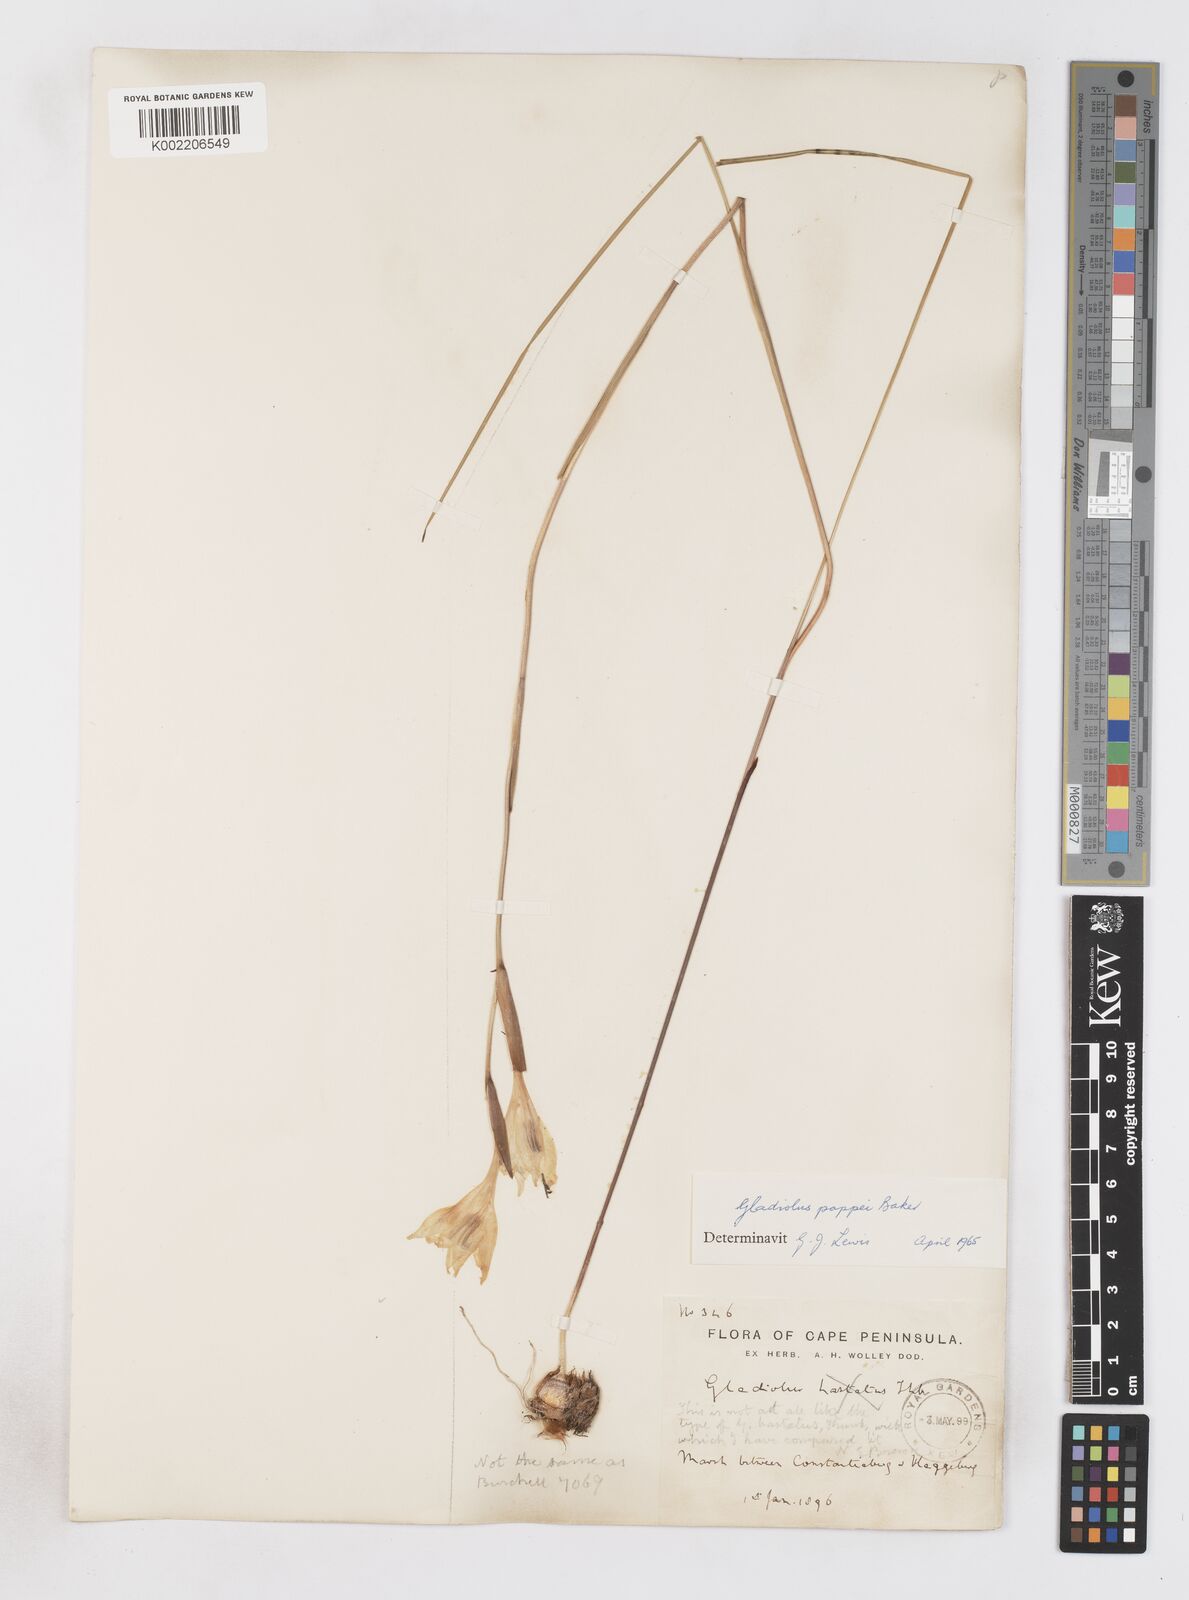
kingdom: Plantae
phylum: Tracheophyta
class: Liliopsida
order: Asparagales
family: Iridaceae
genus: Gladiolus
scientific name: Gladiolus pappei
